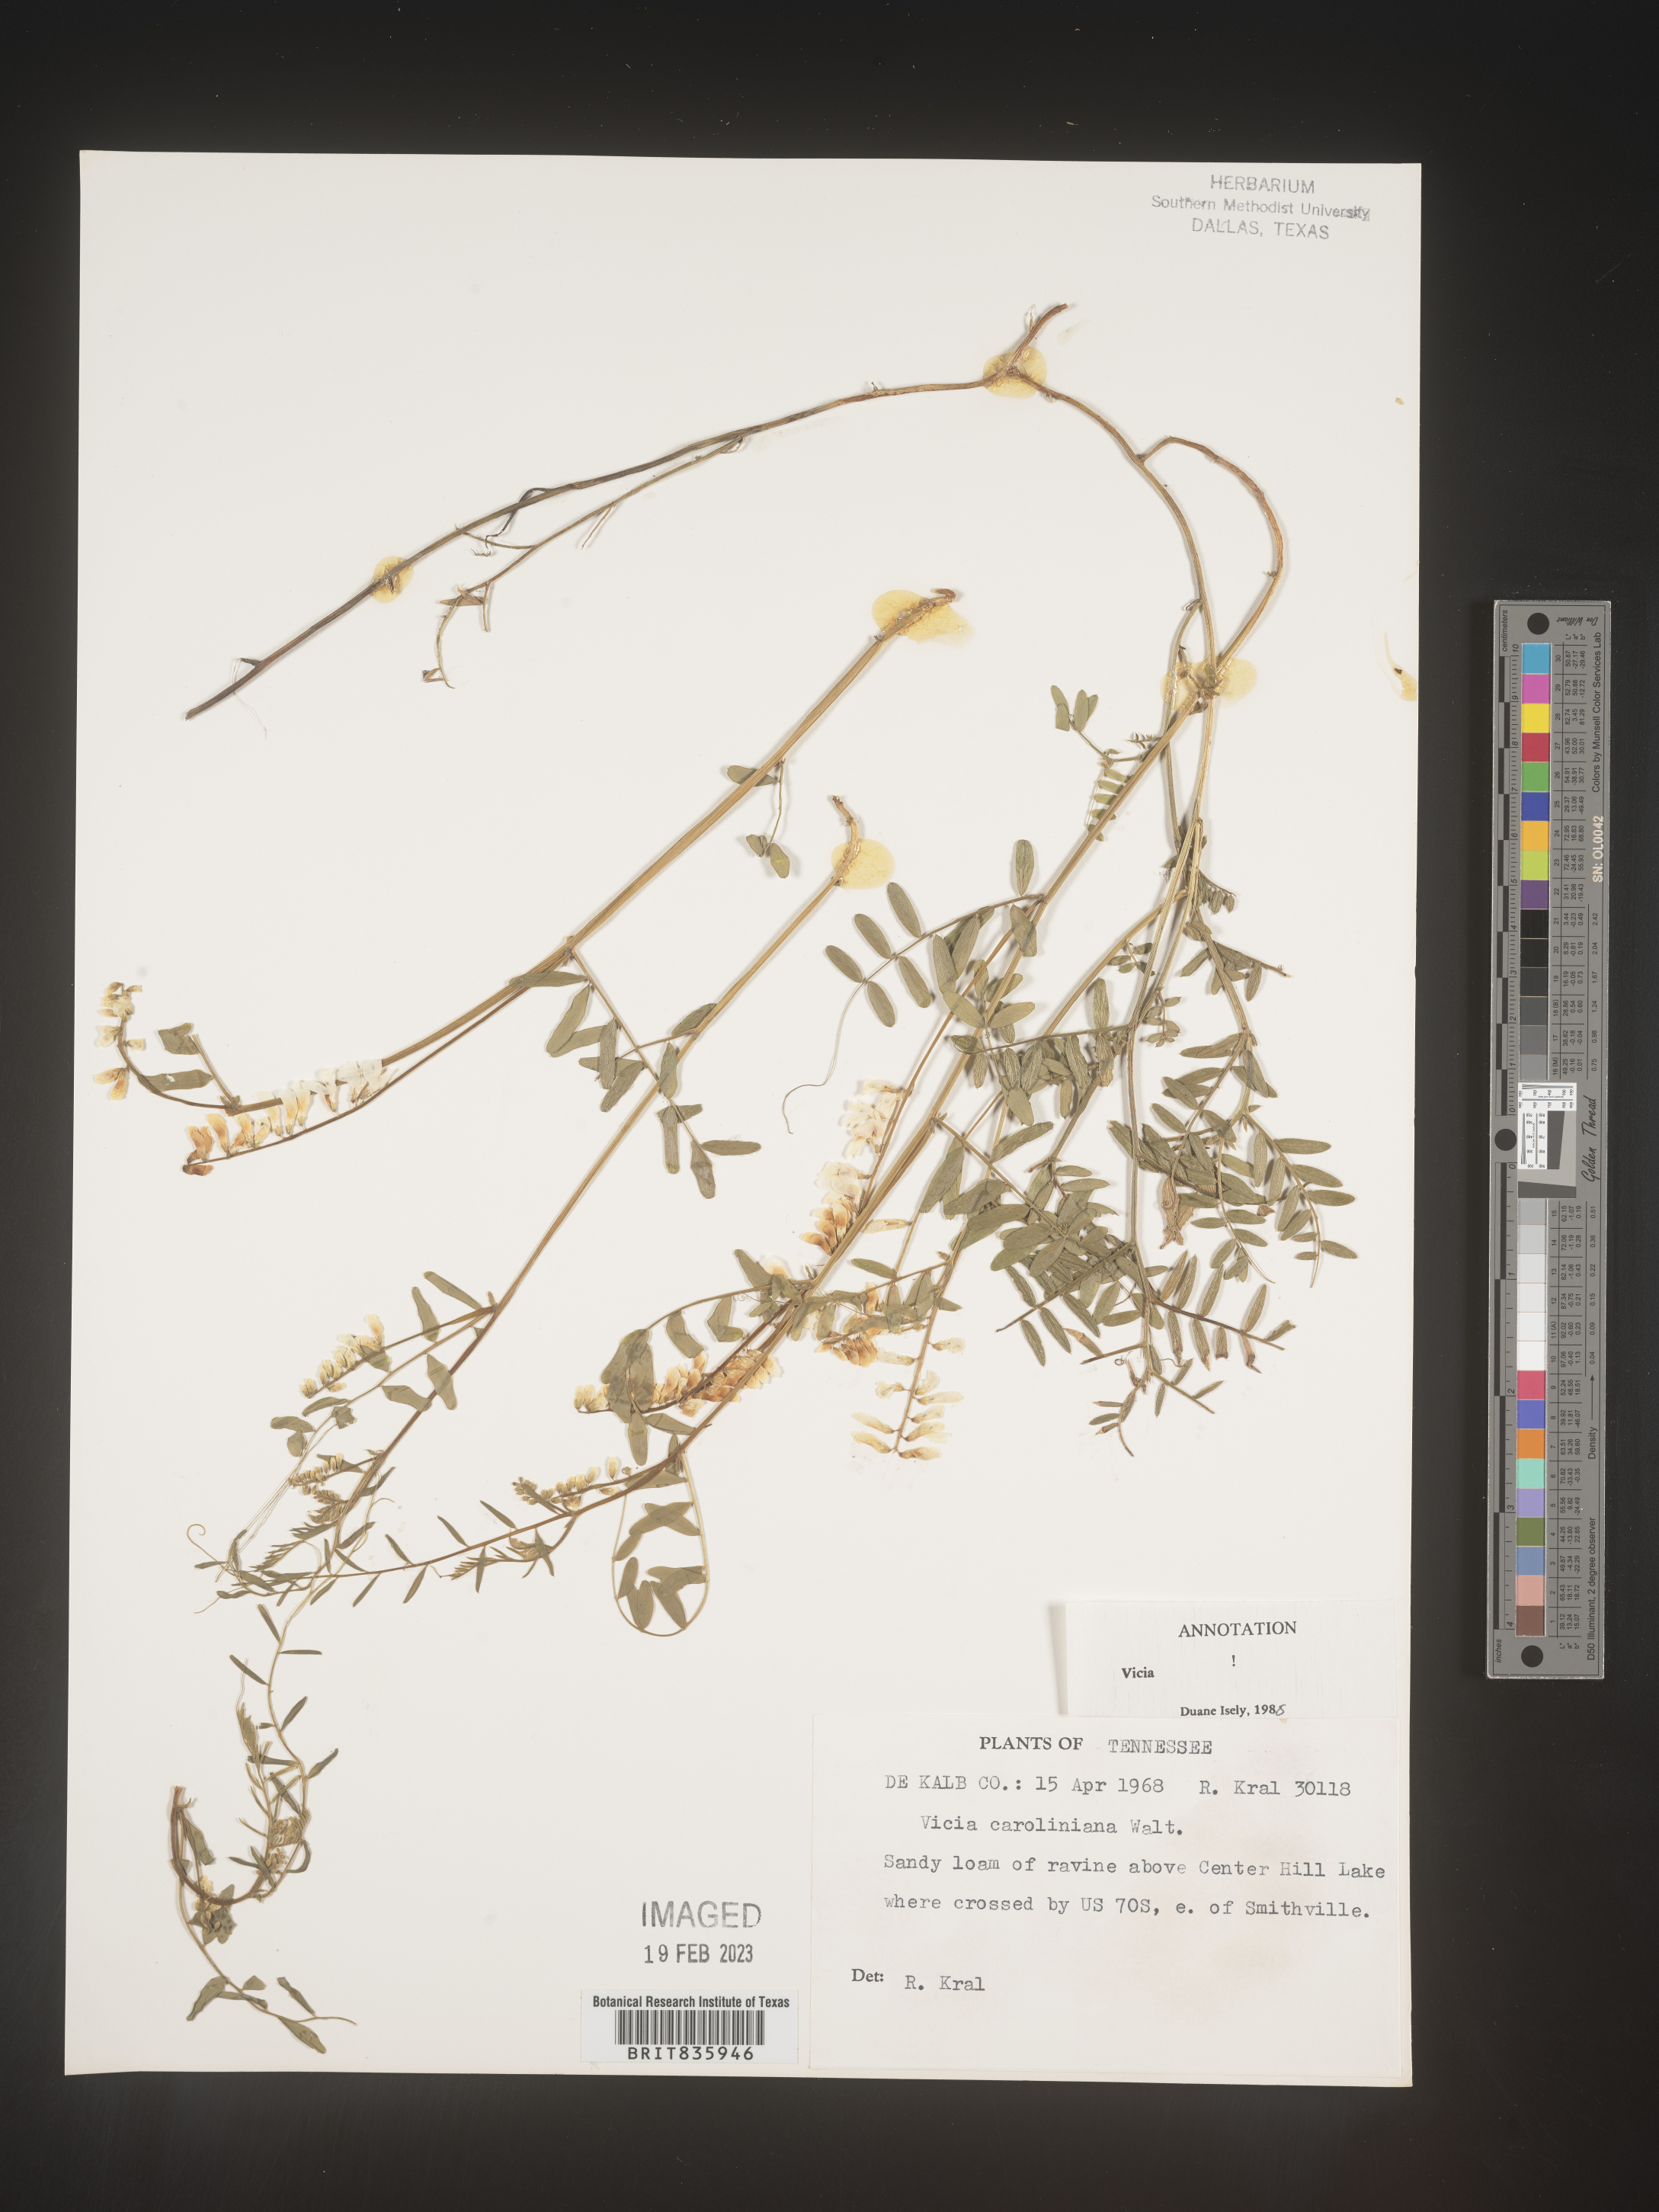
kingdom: Plantae
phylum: Tracheophyta
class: Magnoliopsida
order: Fabales
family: Fabaceae
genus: Vicia
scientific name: Vicia caroliniana
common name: Carolina vetch
